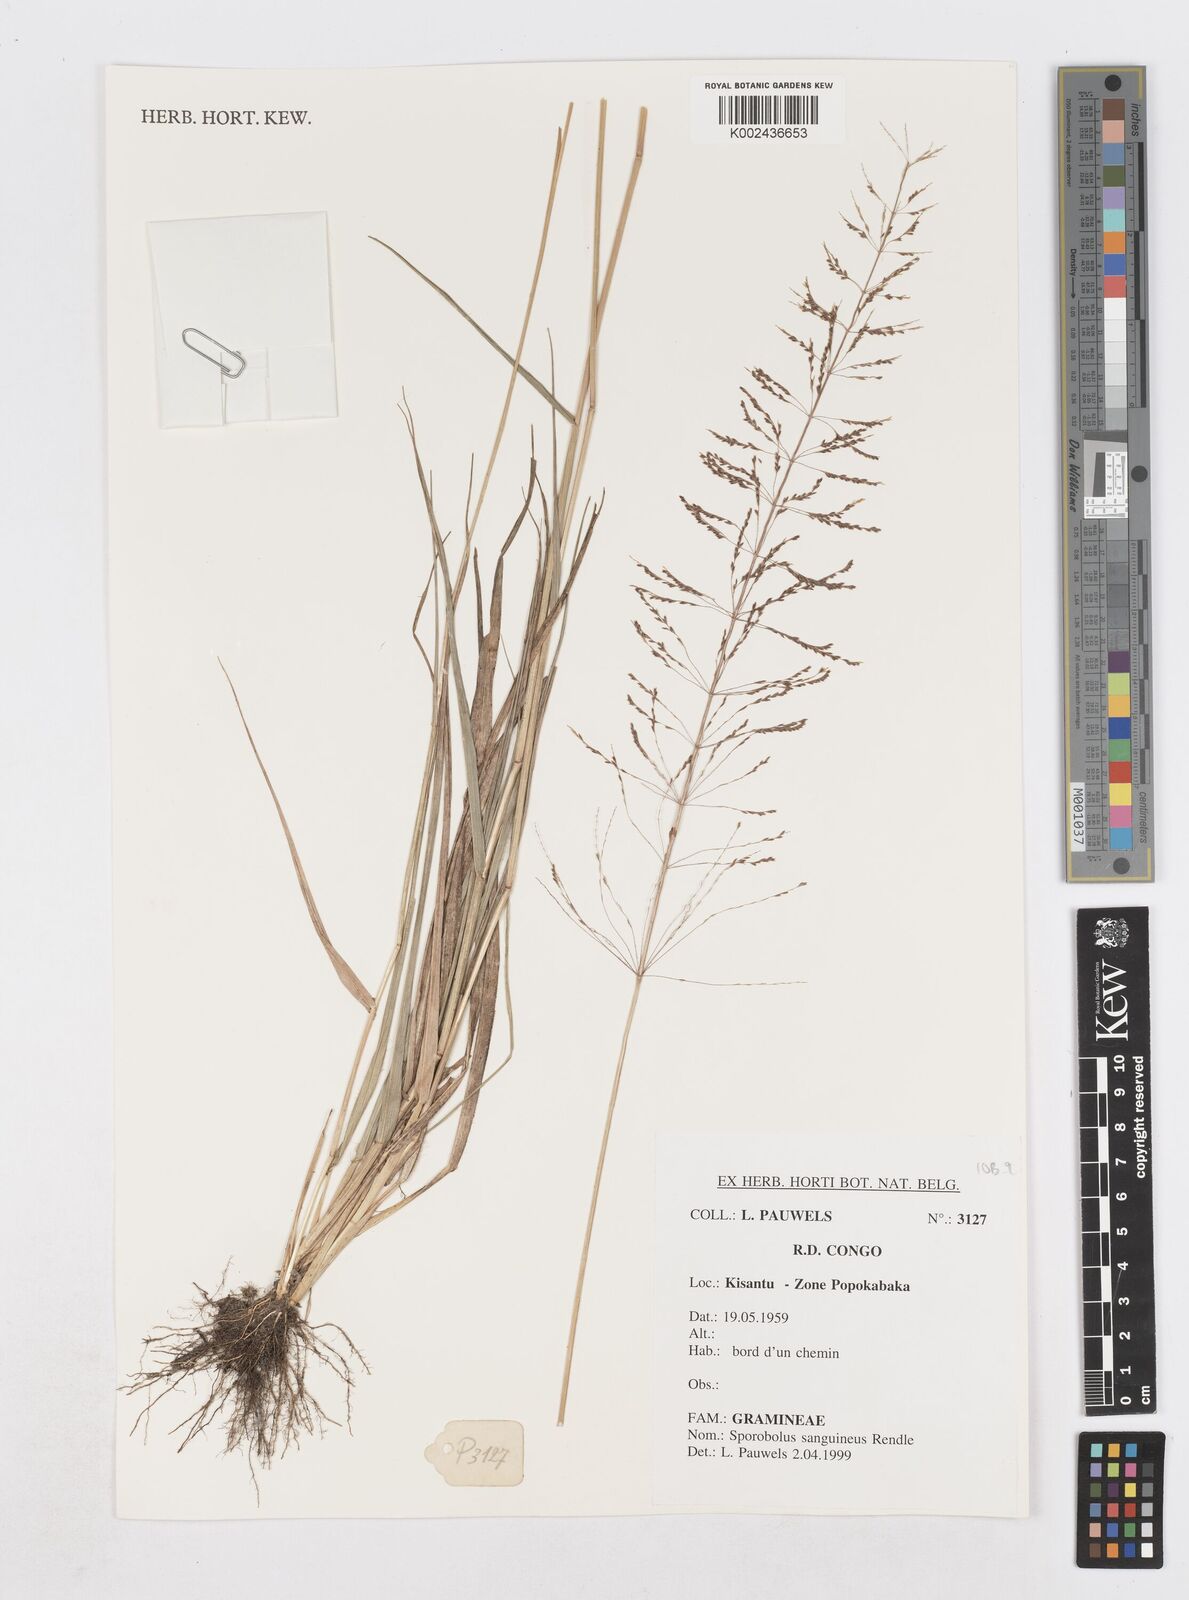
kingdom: Plantae
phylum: Tracheophyta
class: Liliopsida
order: Poales
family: Poaceae
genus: Sporobolus
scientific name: Sporobolus sanguineus
